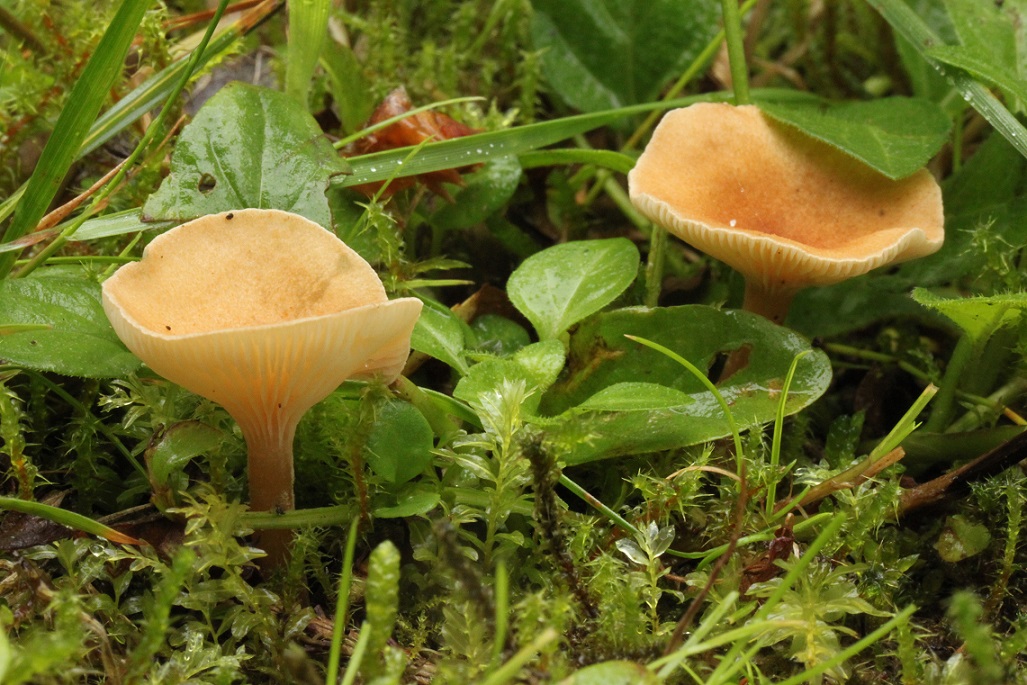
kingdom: Fungi
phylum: Basidiomycota
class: Agaricomycetes
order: Agaricales
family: Tricholomataceae
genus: Infundibulicybe
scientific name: Infundibulicybe gibba
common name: almindelig tragthat
